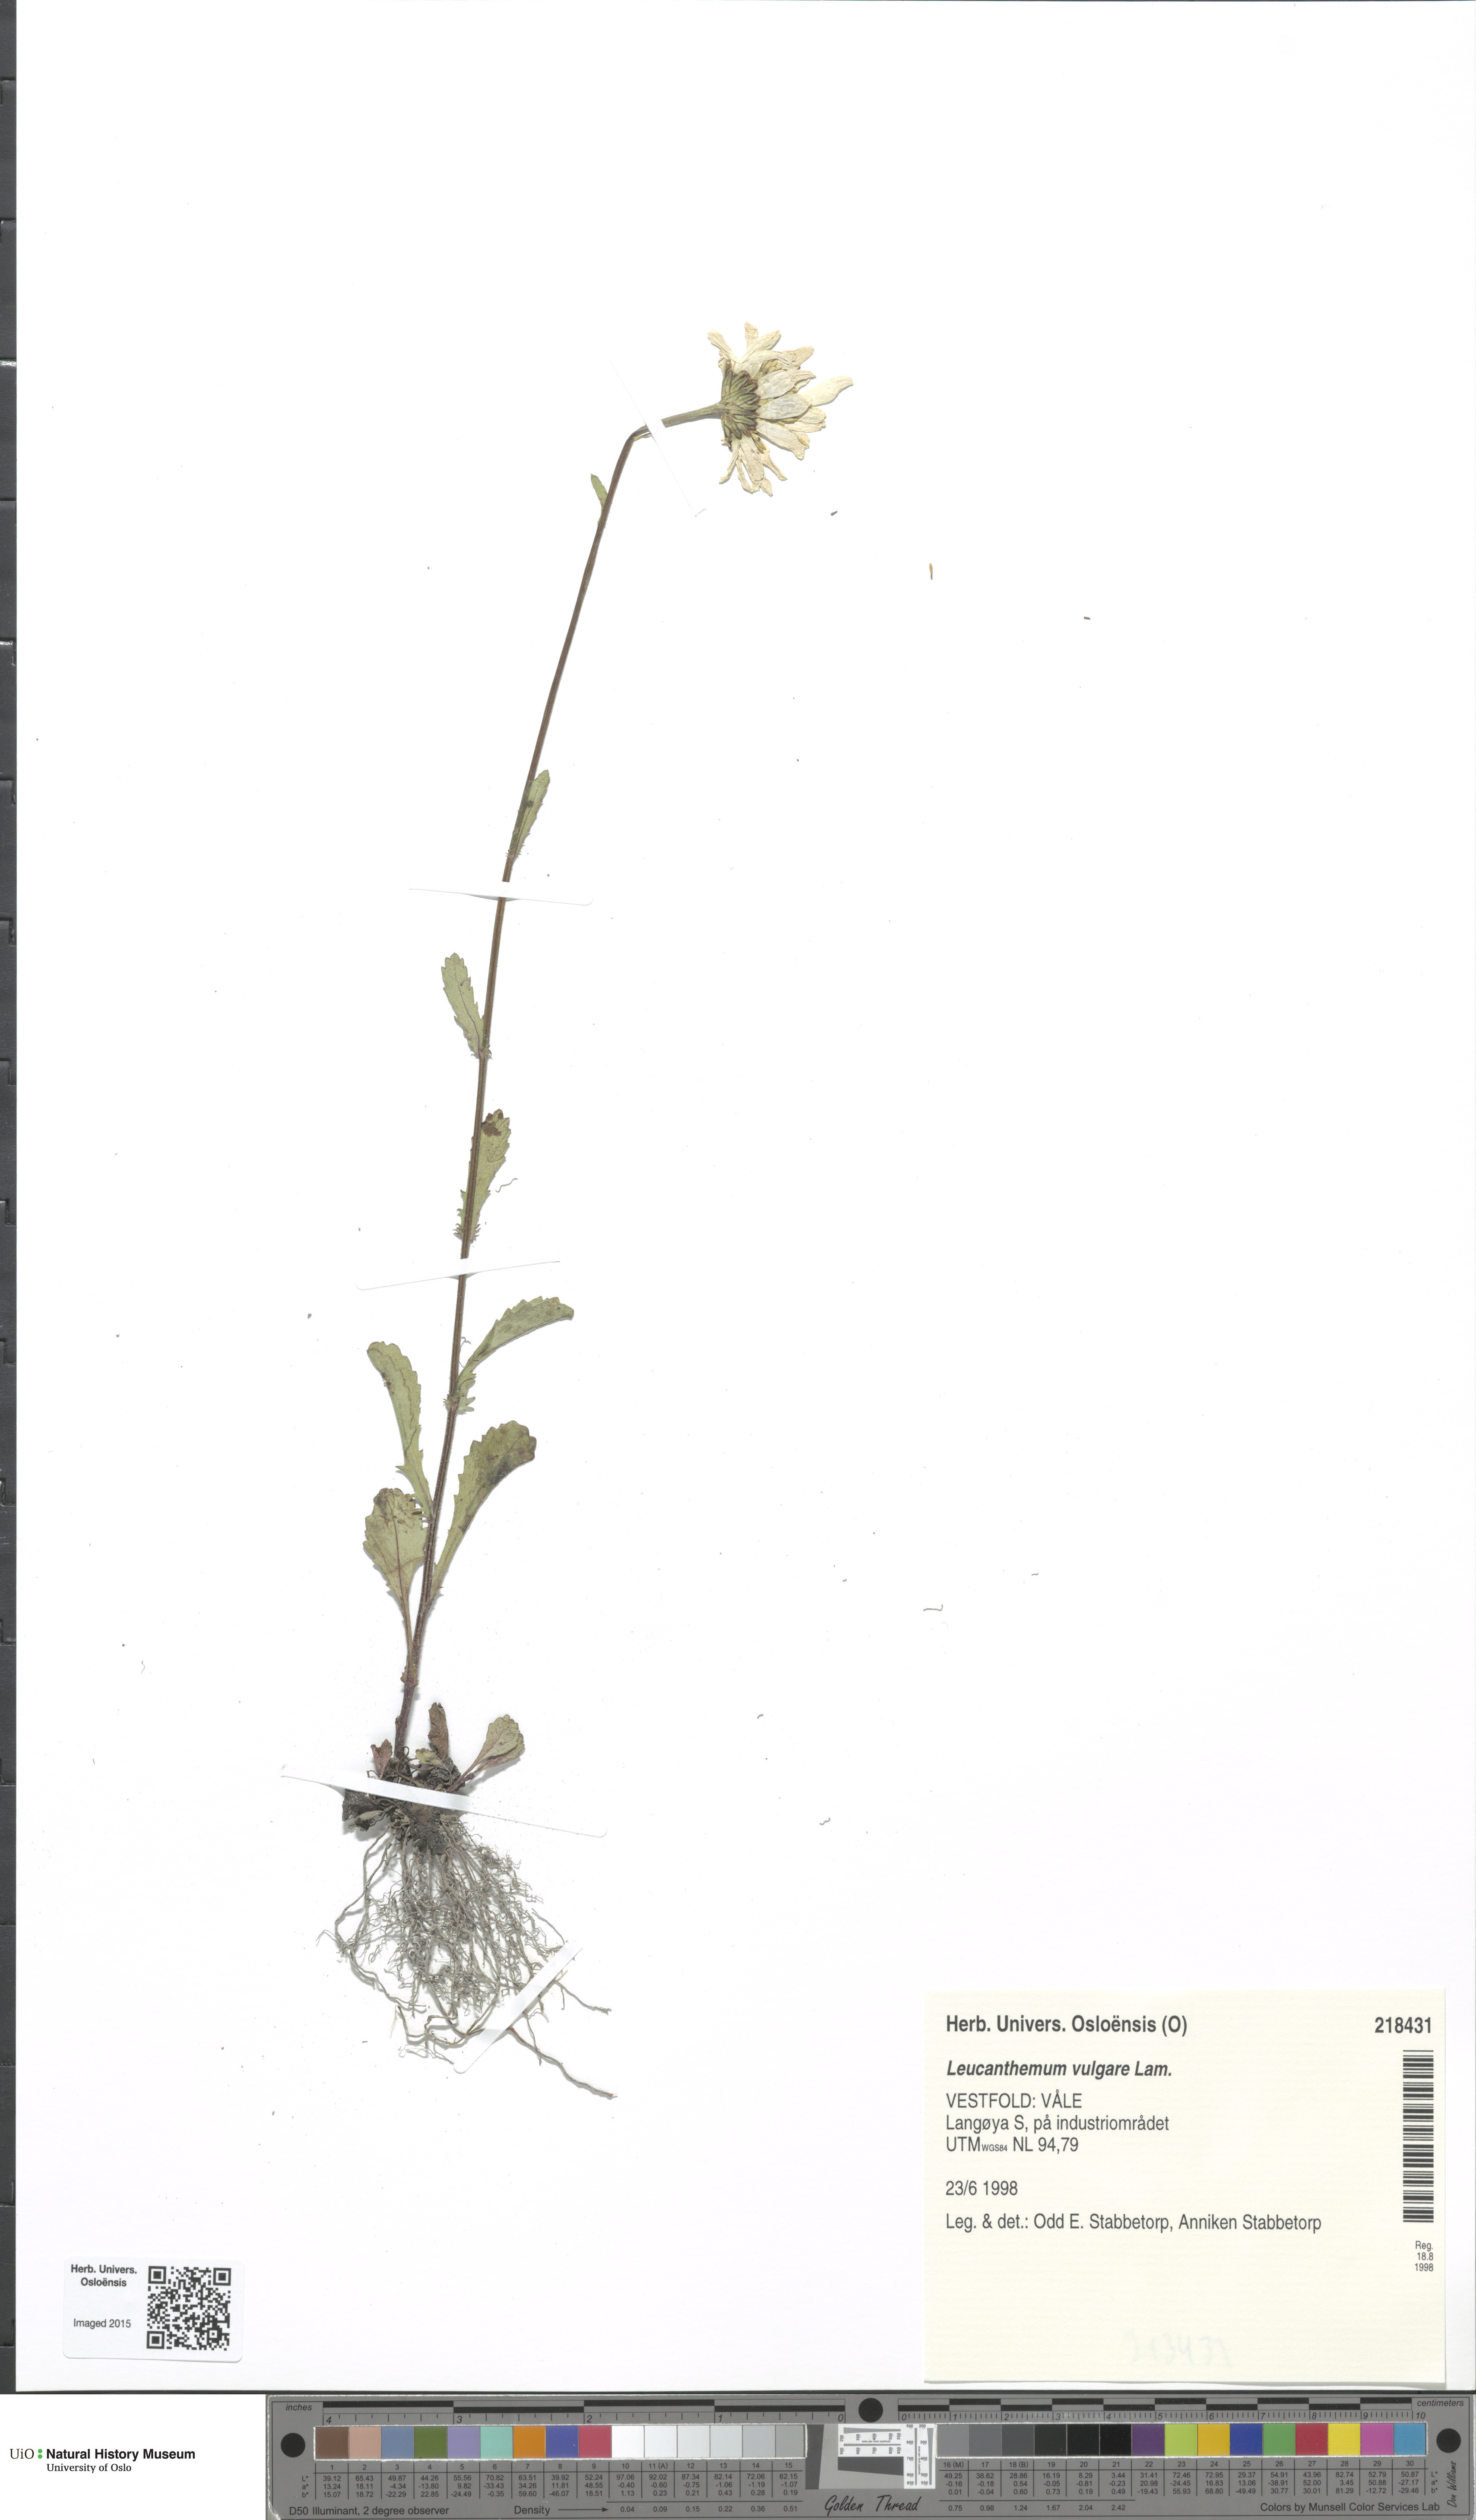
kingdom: Plantae
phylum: Tracheophyta
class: Magnoliopsida
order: Asterales
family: Asteraceae
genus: Leucanthemum
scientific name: Leucanthemum vulgare
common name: Oxeye daisy
